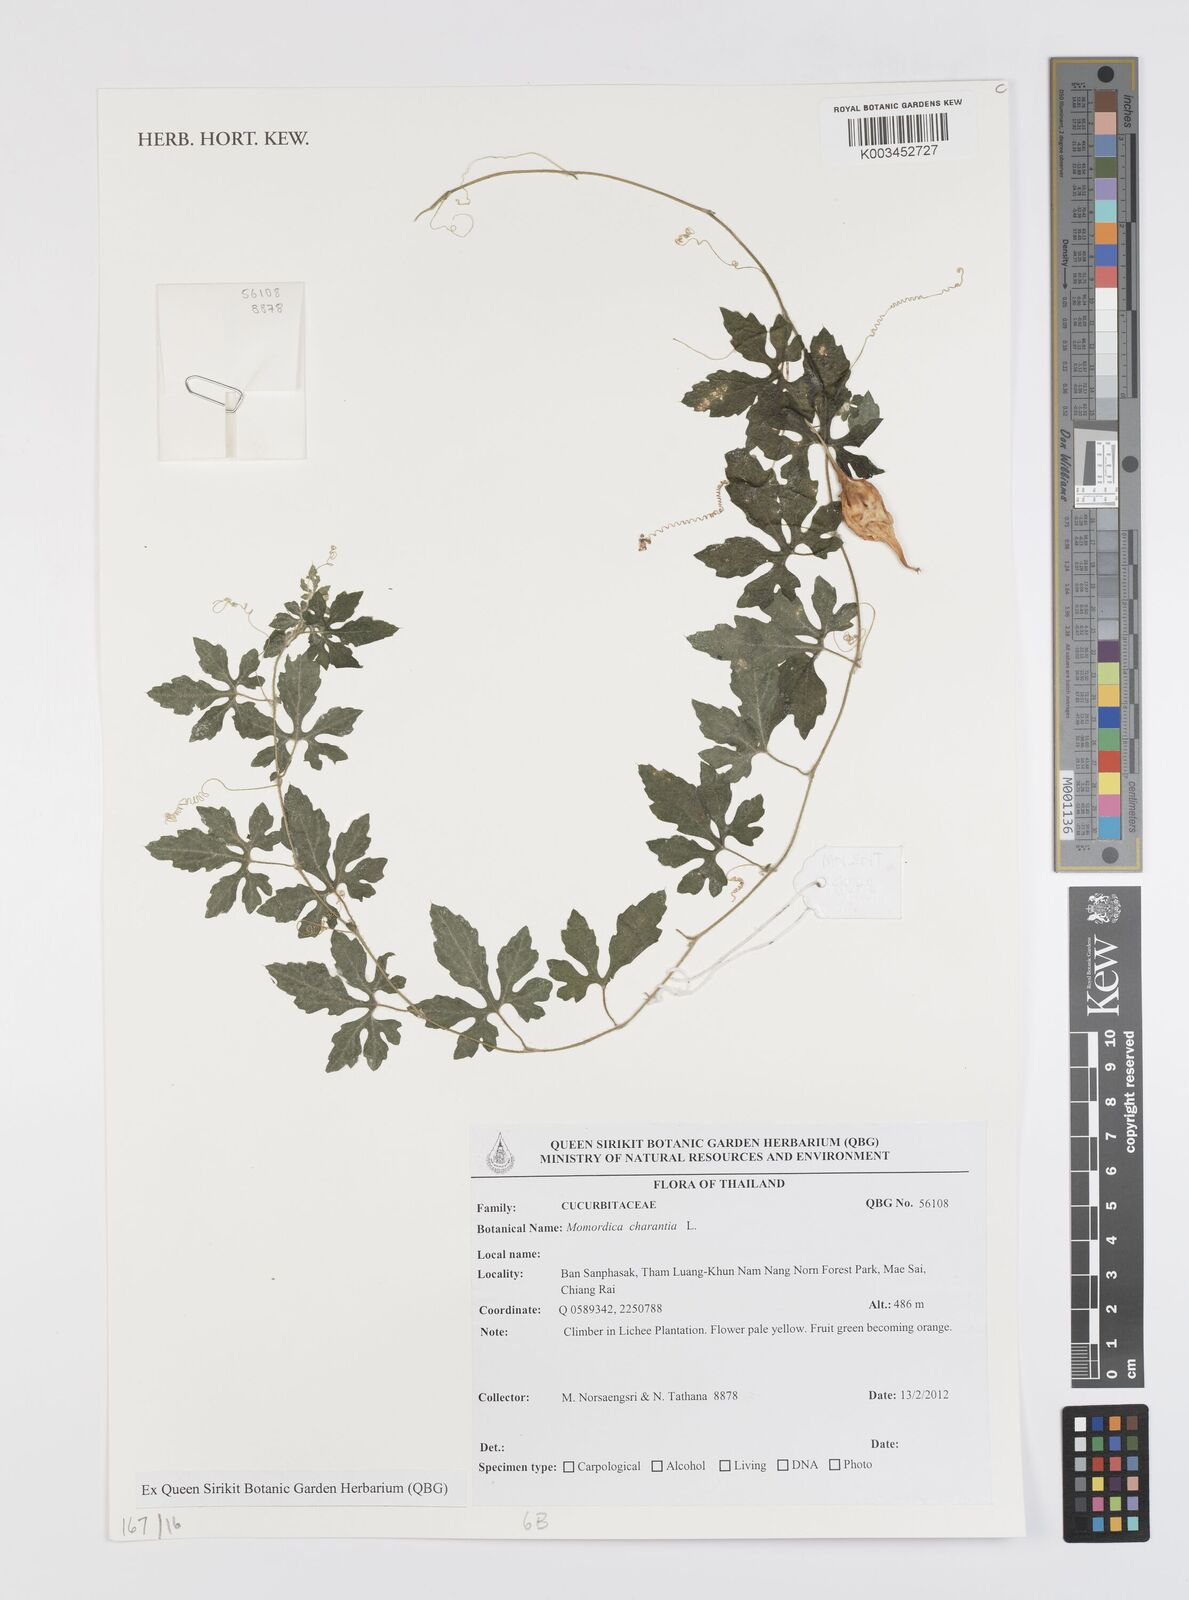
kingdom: Plantae
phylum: Tracheophyta
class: Magnoliopsida
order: Cucurbitales
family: Cucurbitaceae
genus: Momordica
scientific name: Momordica charantia
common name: Balsampear
